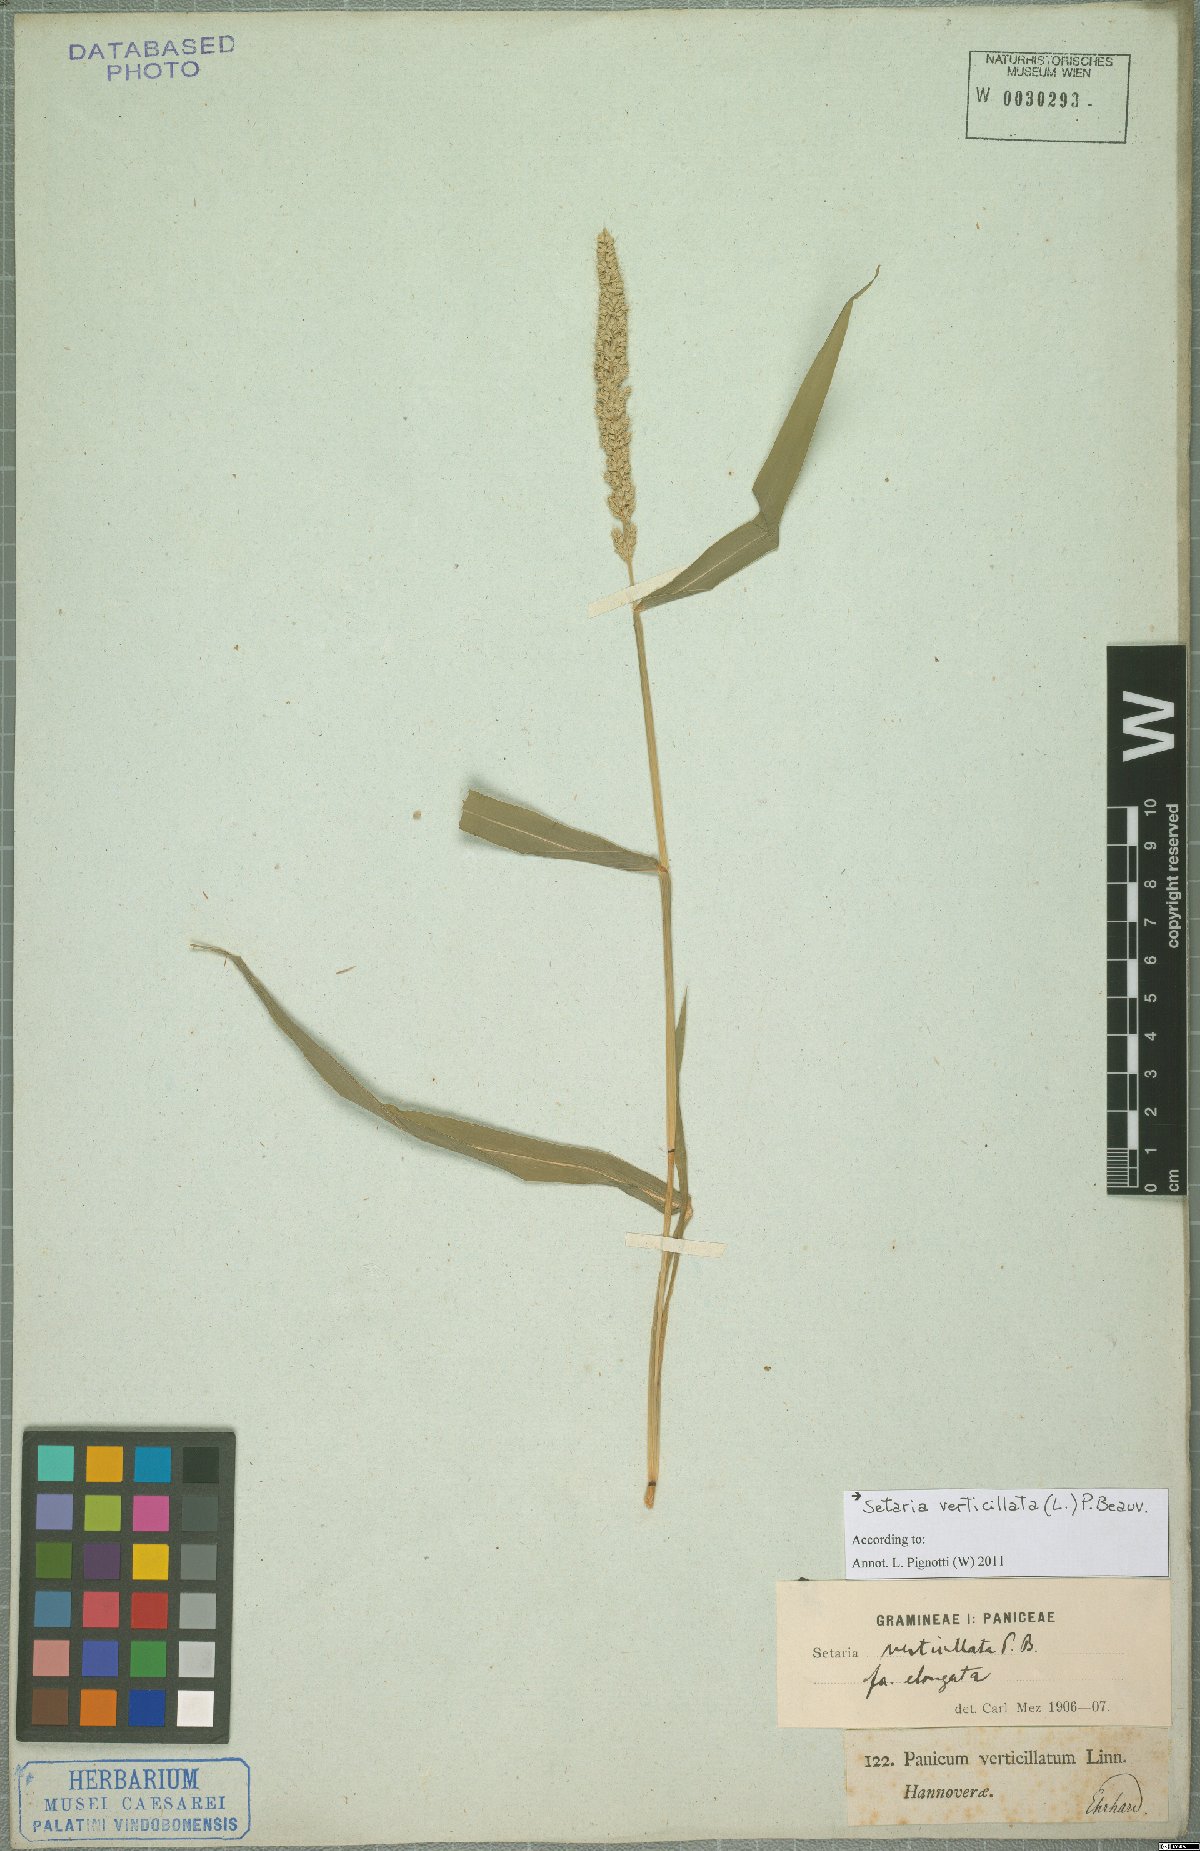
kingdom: Plantae
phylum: Tracheophyta
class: Liliopsida
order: Poales
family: Poaceae
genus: Setaria
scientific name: Setaria verticillata
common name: Hooked bristlegrass
